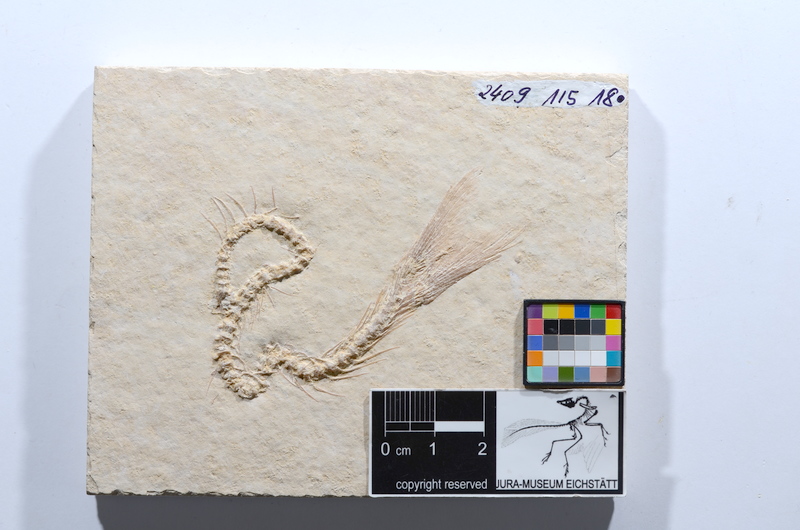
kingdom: Animalia
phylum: Chordata
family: Ascalaboidae
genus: Tharsis
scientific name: Tharsis dubius
